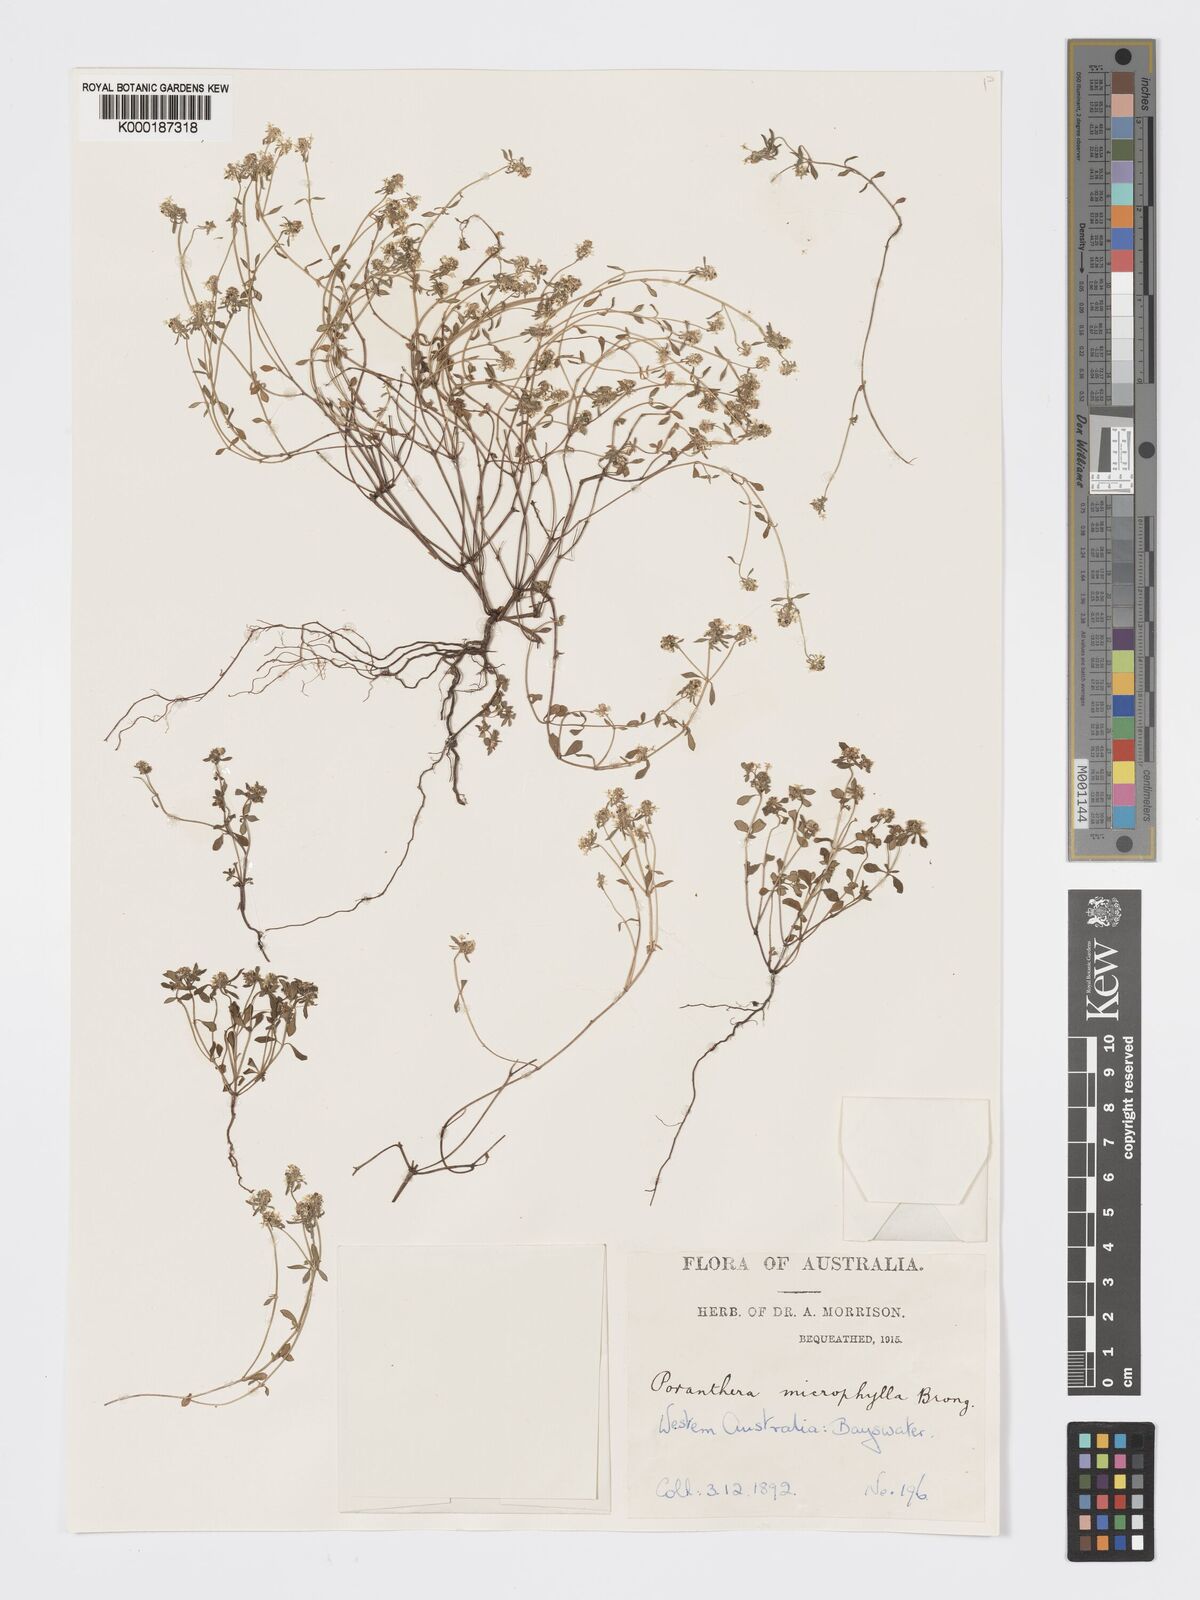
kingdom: Plantae
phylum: Tracheophyta
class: Magnoliopsida
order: Malpighiales
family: Phyllanthaceae
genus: Poranthera
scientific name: Poranthera microphylla
